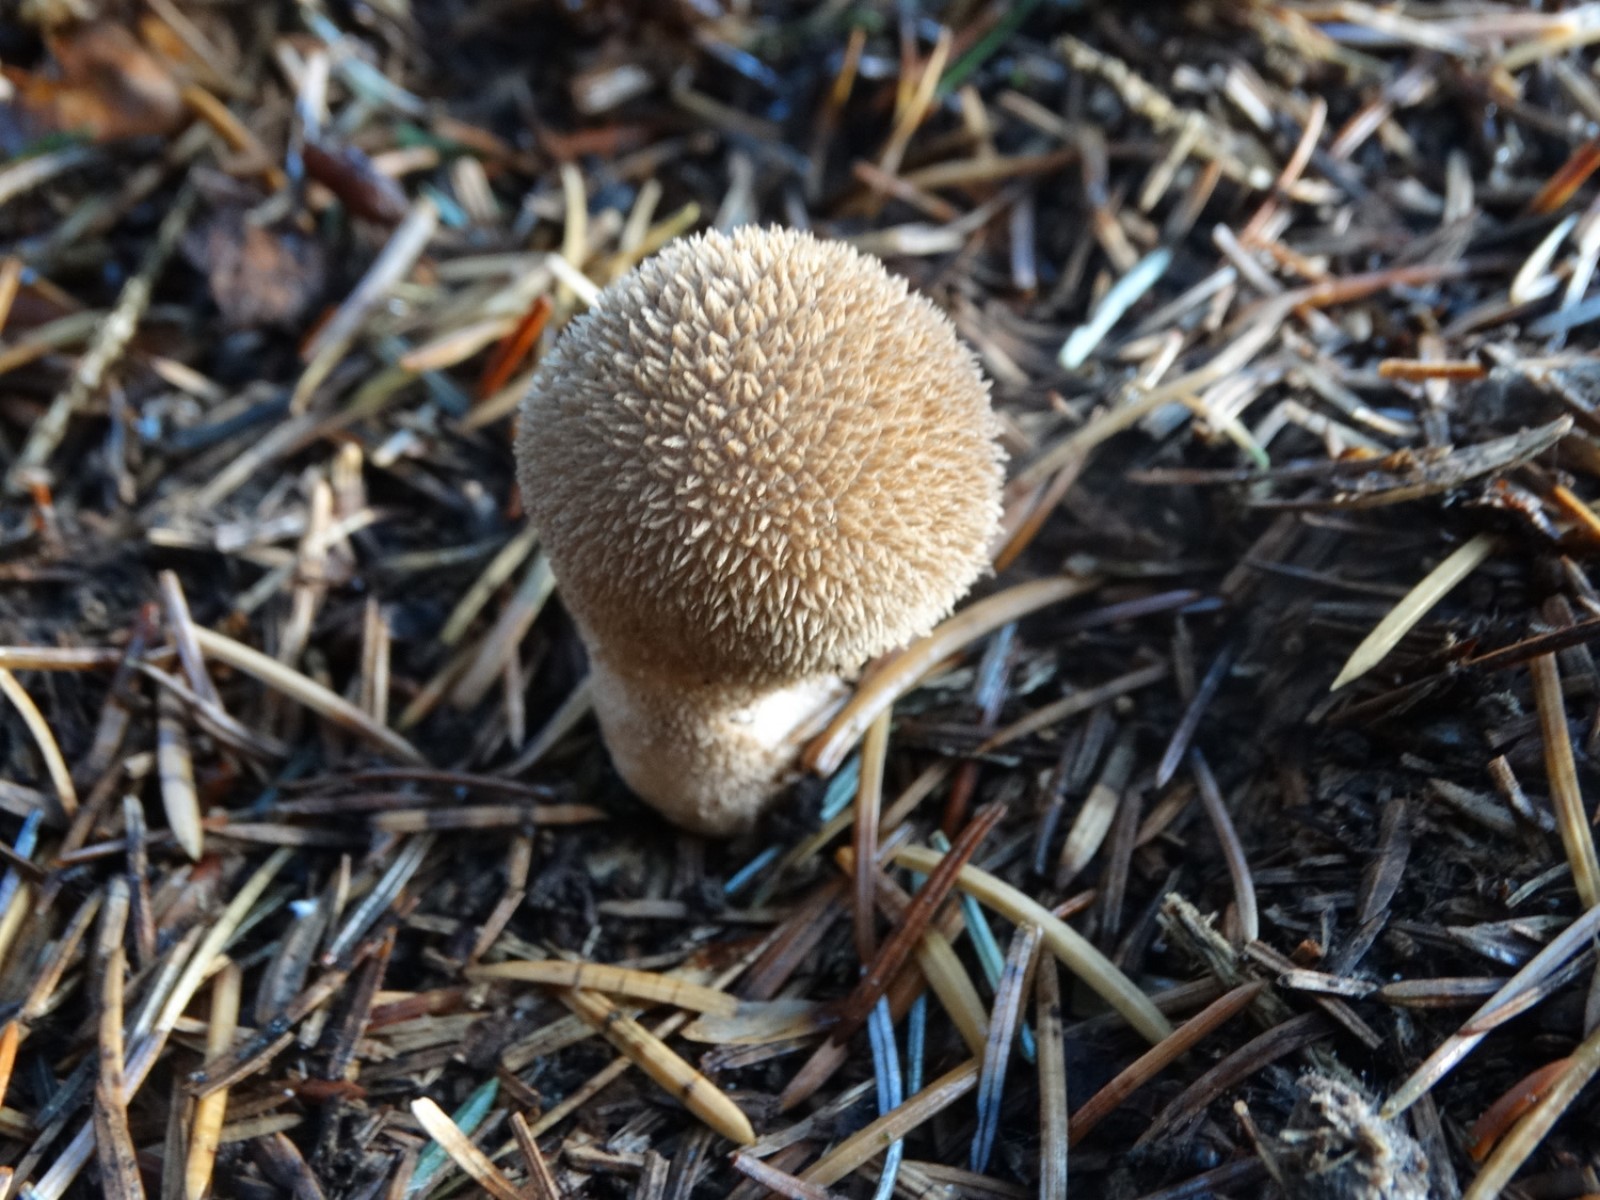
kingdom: Fungi
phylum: Basidiomycota
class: Agaricomycetes
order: Agaricales
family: Lycoperdaceae
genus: Lycoperdon
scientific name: Lycoperdon echinatum
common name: pindsvine-støvbold
